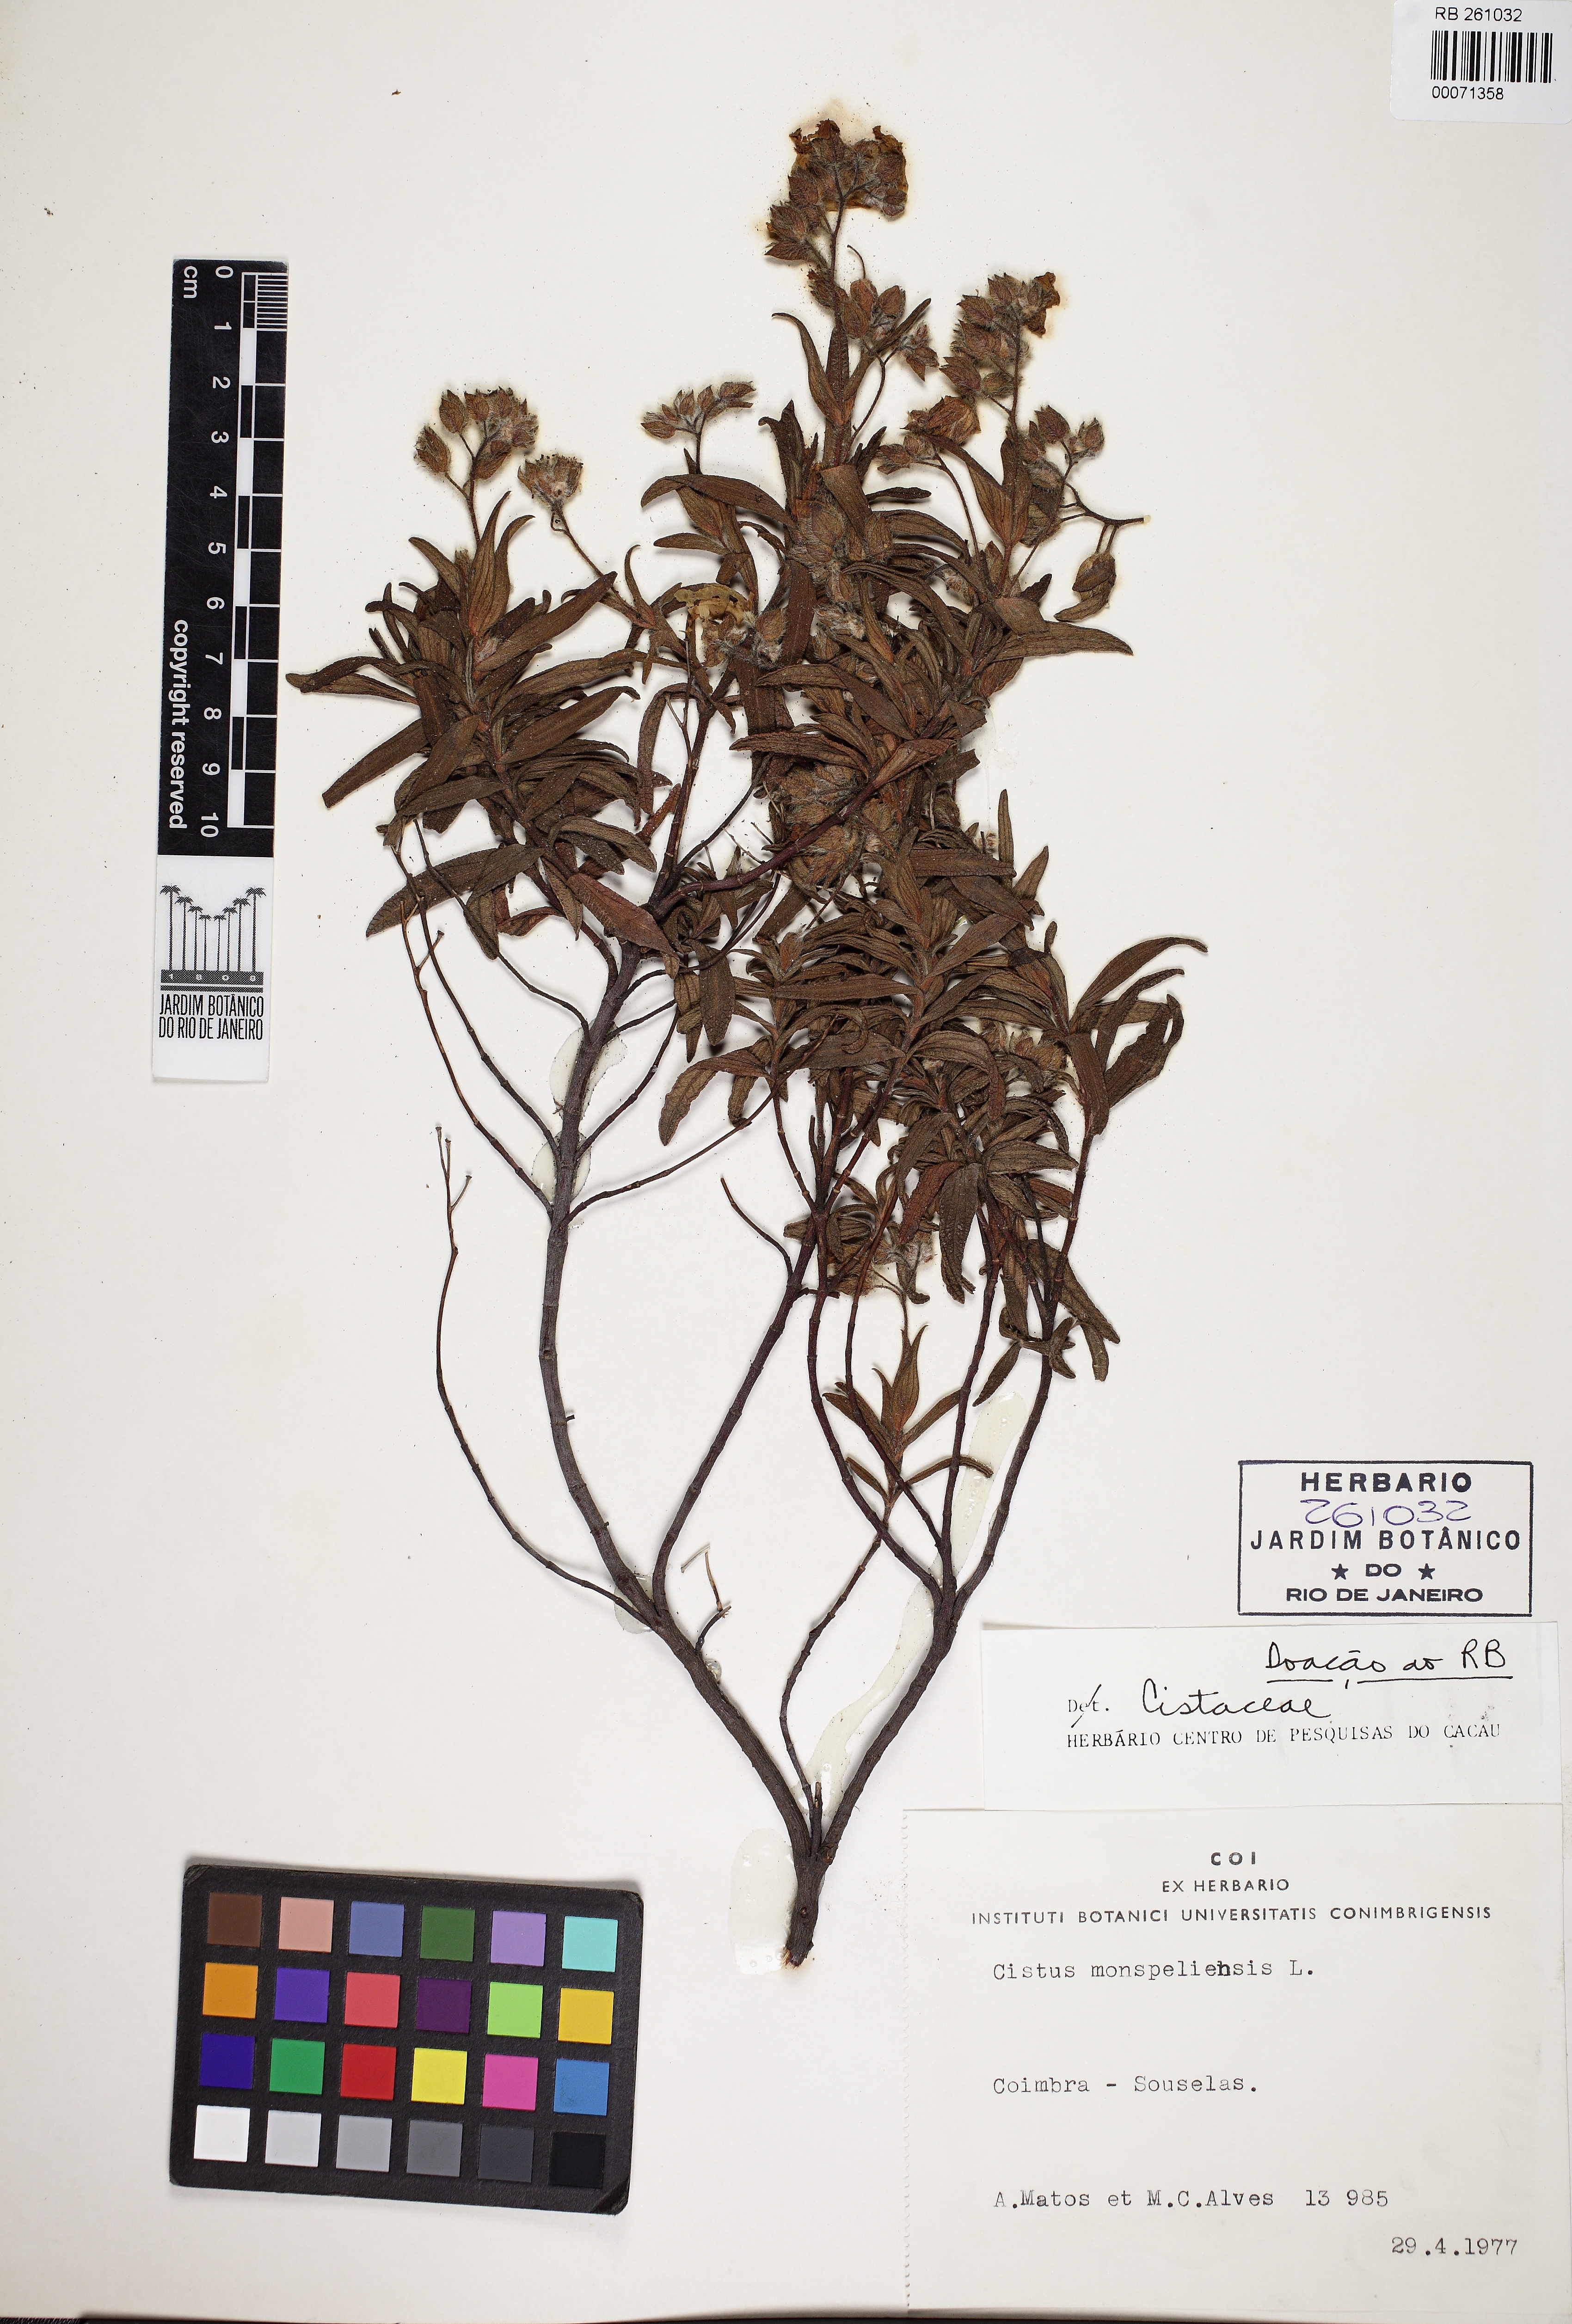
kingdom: Plantae
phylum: Tracheophyta
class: Magnoliopsida
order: Malvales
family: Cistaceae
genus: Cistus
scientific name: Cistus monspeliensis
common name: Montpelier cistus
